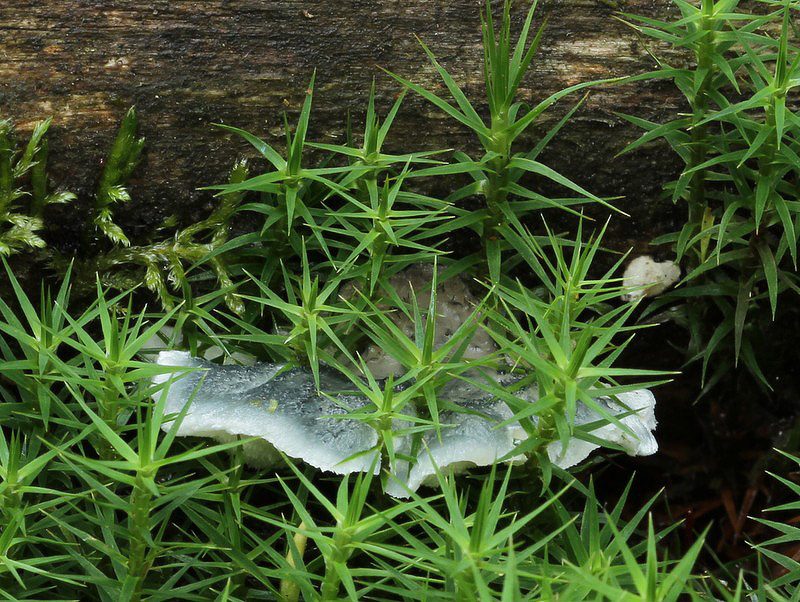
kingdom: Fungi
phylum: Basidiomycota
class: Agaricomycetes
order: Polyporales
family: Polyporaceae
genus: Cyanosporus
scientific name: Cyanosporus caesius
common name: blålig kødporesvamp
